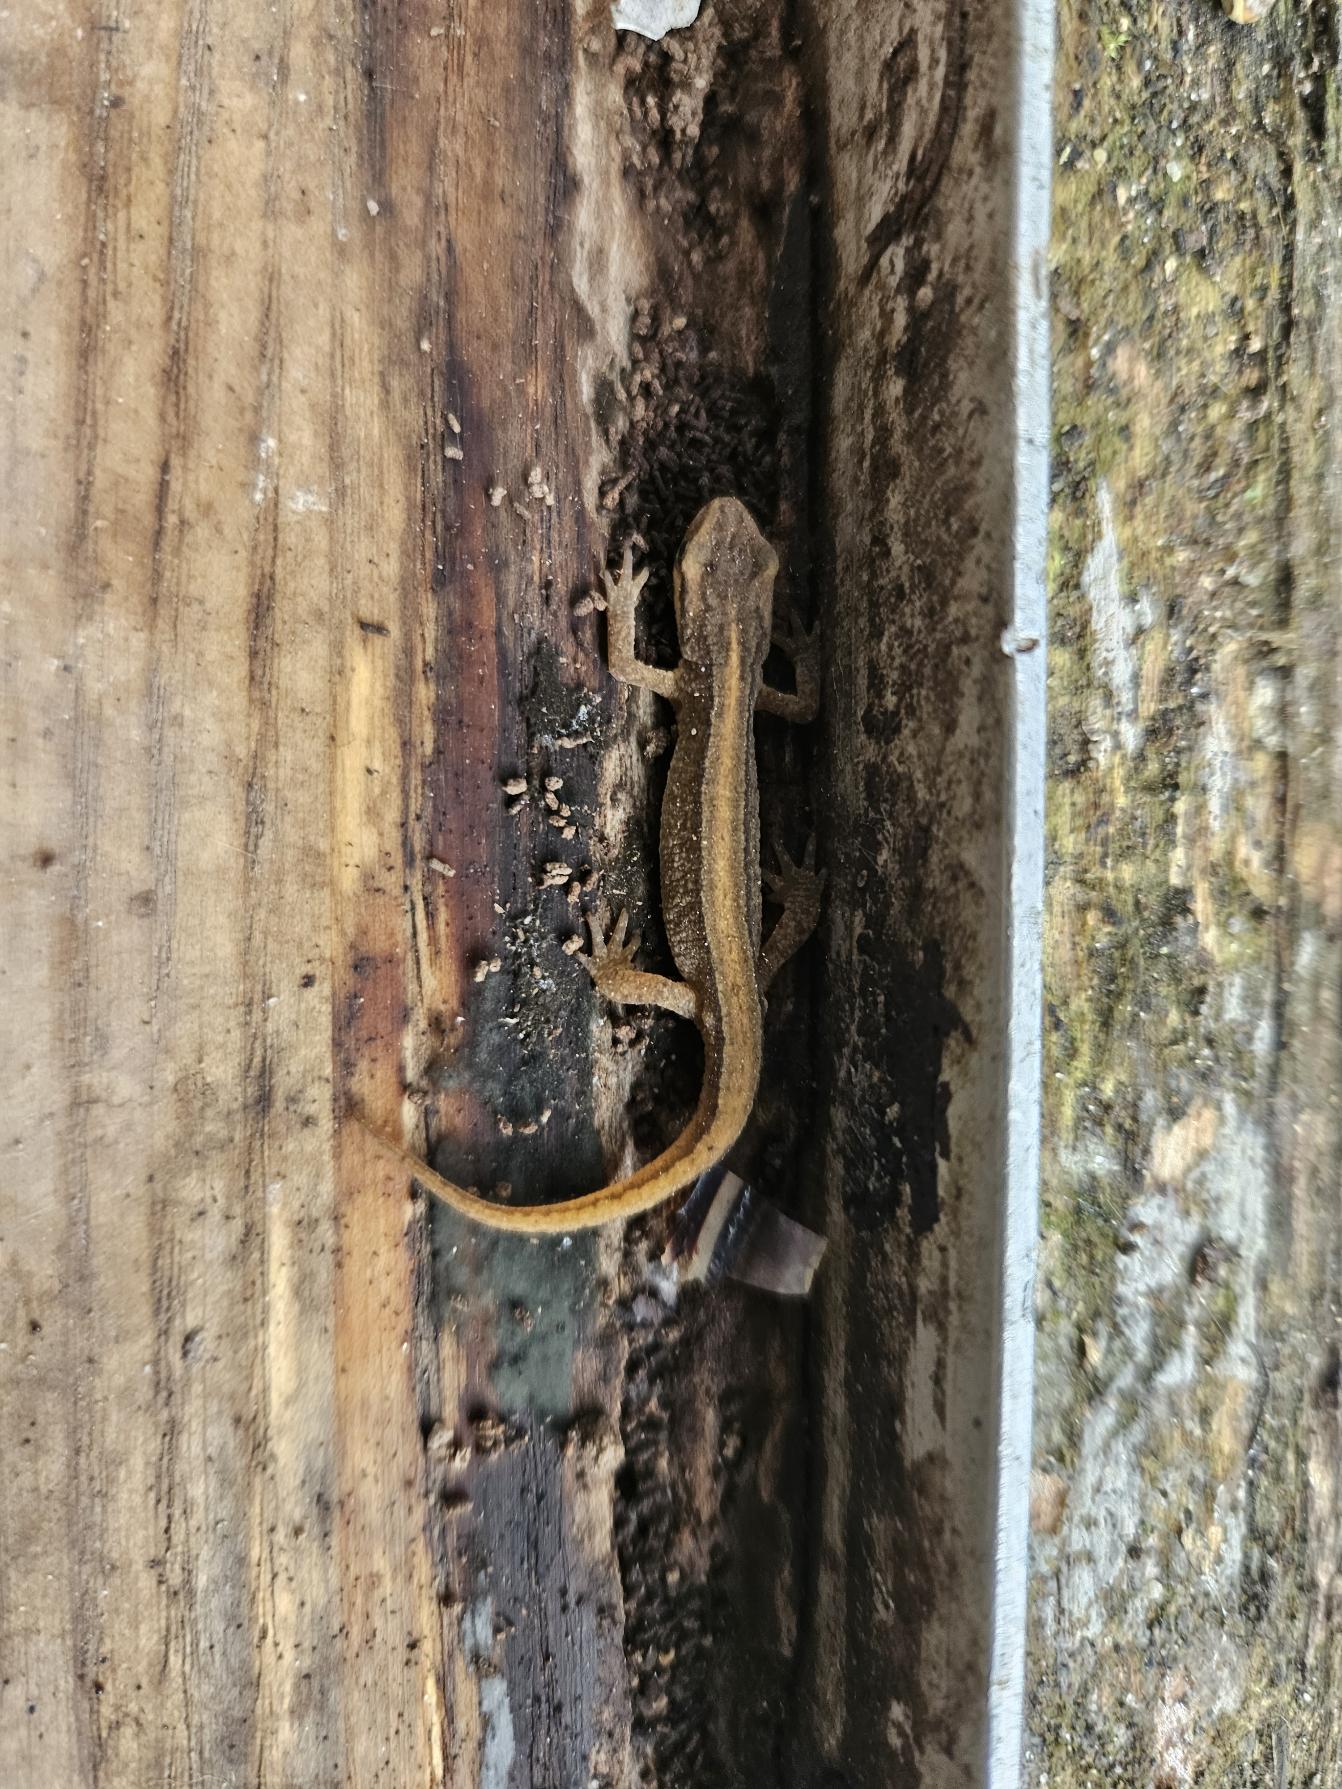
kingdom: Animalia
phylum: Chordata
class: Amphibia
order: Caudata
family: Salamandridae
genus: Lissotriton
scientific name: Lissotriton vulgaris
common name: Lille vandsalamander
